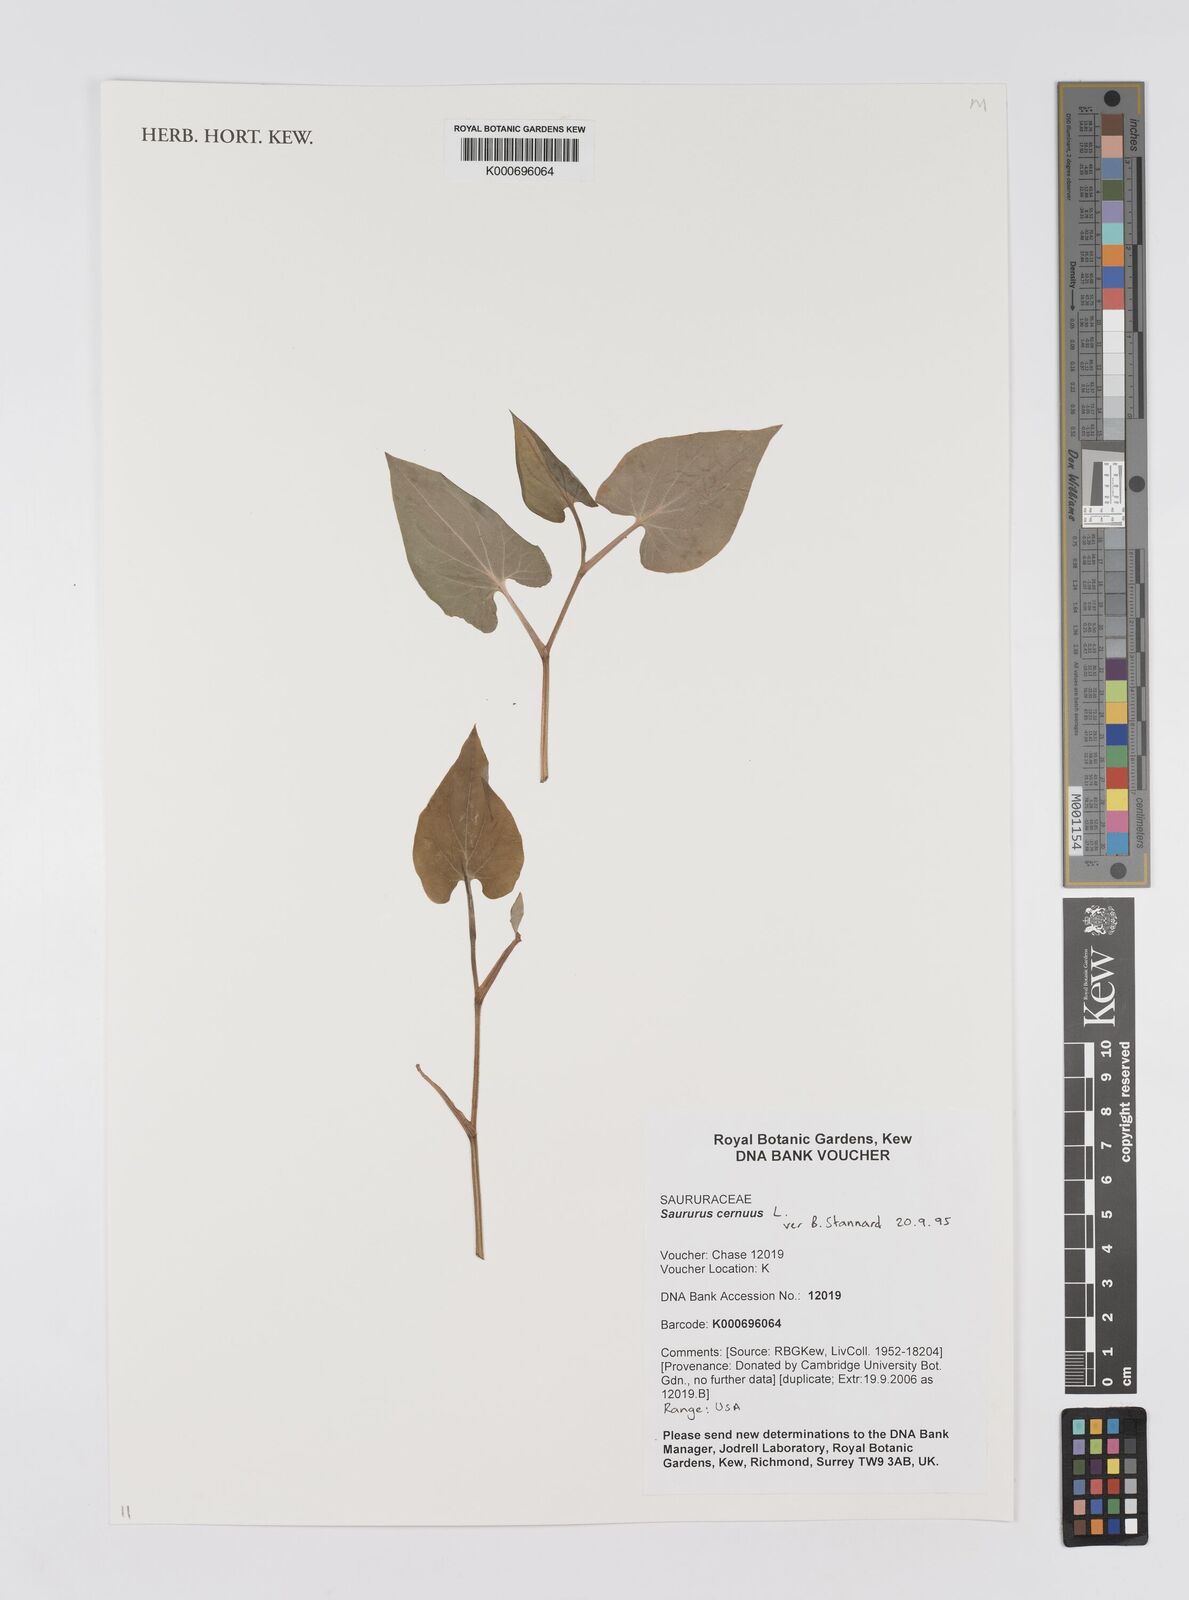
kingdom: Plantae
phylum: Tracheophyta
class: Magnoliopsida
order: Piperales
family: Saururaceae
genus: Saururus
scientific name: Saururus cernuus
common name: Lizard's-tail
